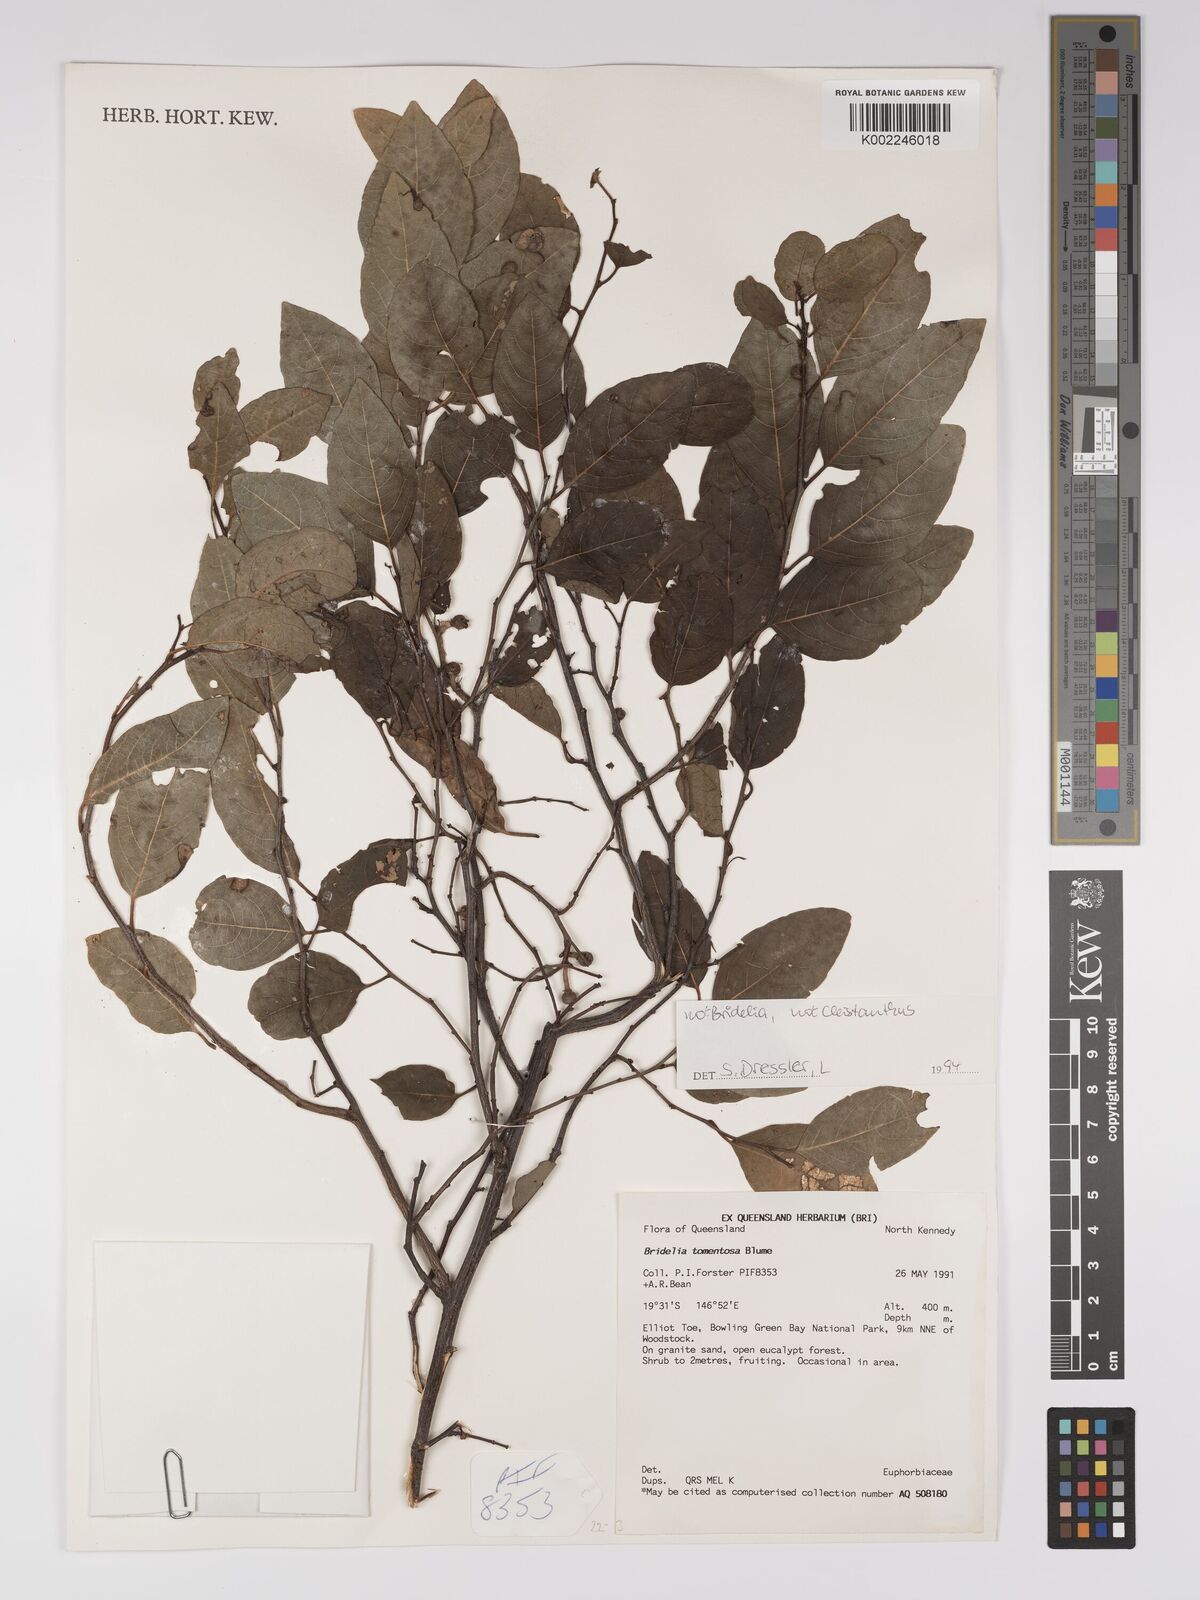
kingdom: Plantae
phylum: Tracheophyta
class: Magnoliopsida
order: Malpighiales
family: Euphorbiaceae
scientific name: Euphorbiaceae
